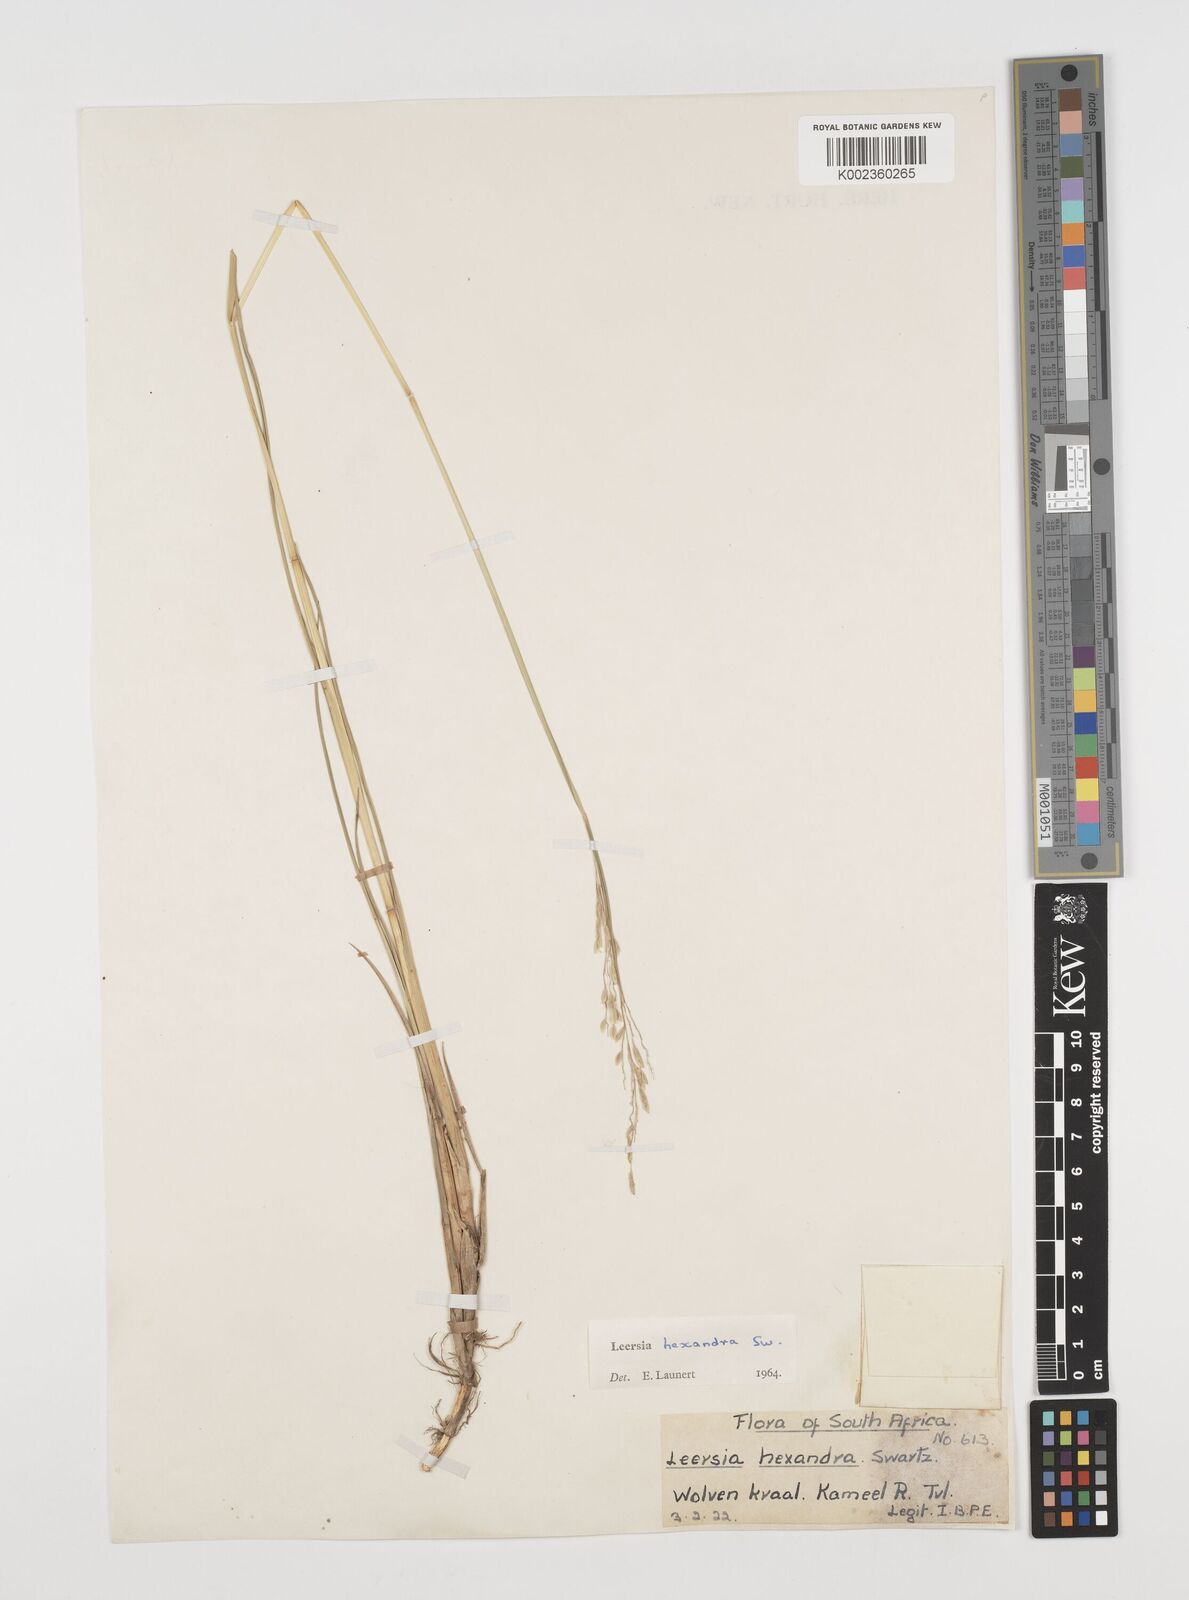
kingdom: Plantae
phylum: Tracheophyta
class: Liliopsida
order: Poales
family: Poaceae
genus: Leersia
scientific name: Leersia hexandra
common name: Southern cut grass
